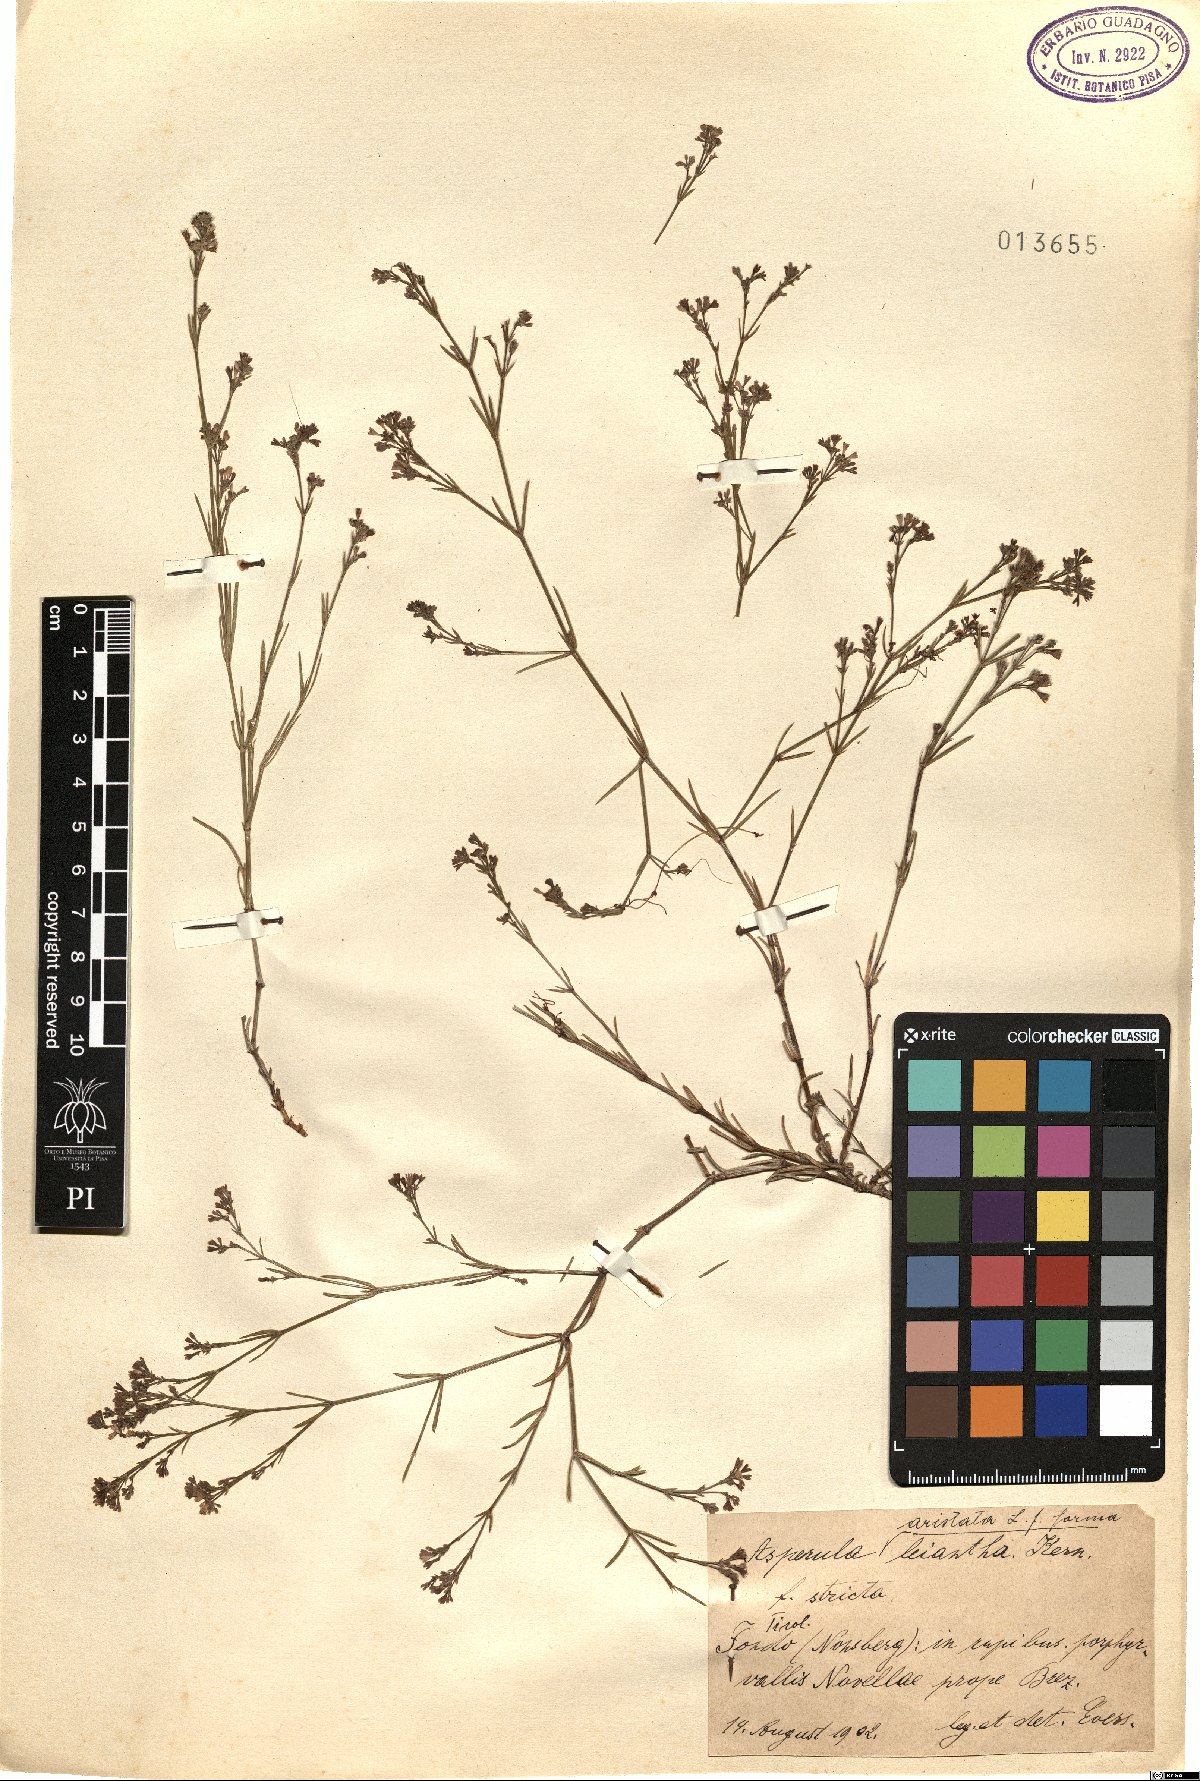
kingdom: Plantae
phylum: Tracheophyta
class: Magnoliopsida
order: Gentianales
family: Rubiaceae
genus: Cynanchica
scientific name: Cynanchica aristata
